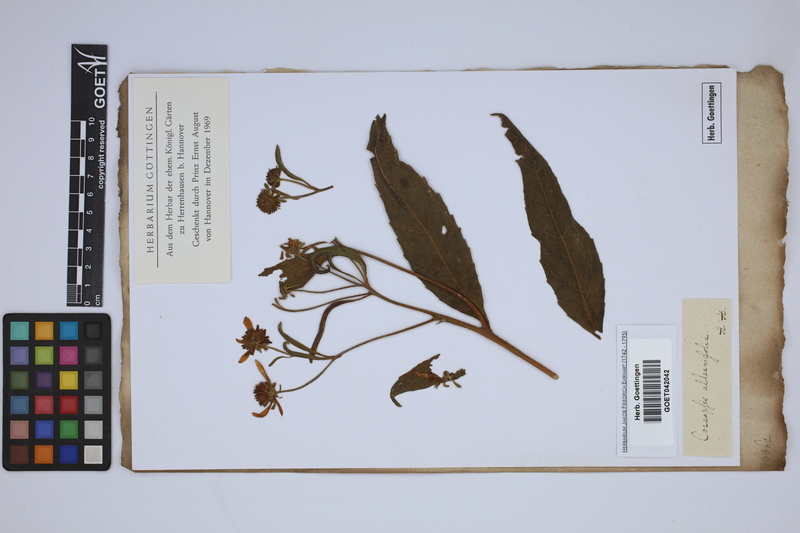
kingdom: Plantae
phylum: Tracheophyta
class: Magnoliopsida
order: Asterales
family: Asteraceae
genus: Verbesina
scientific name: Verbesina alternifolia
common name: Wingstem
